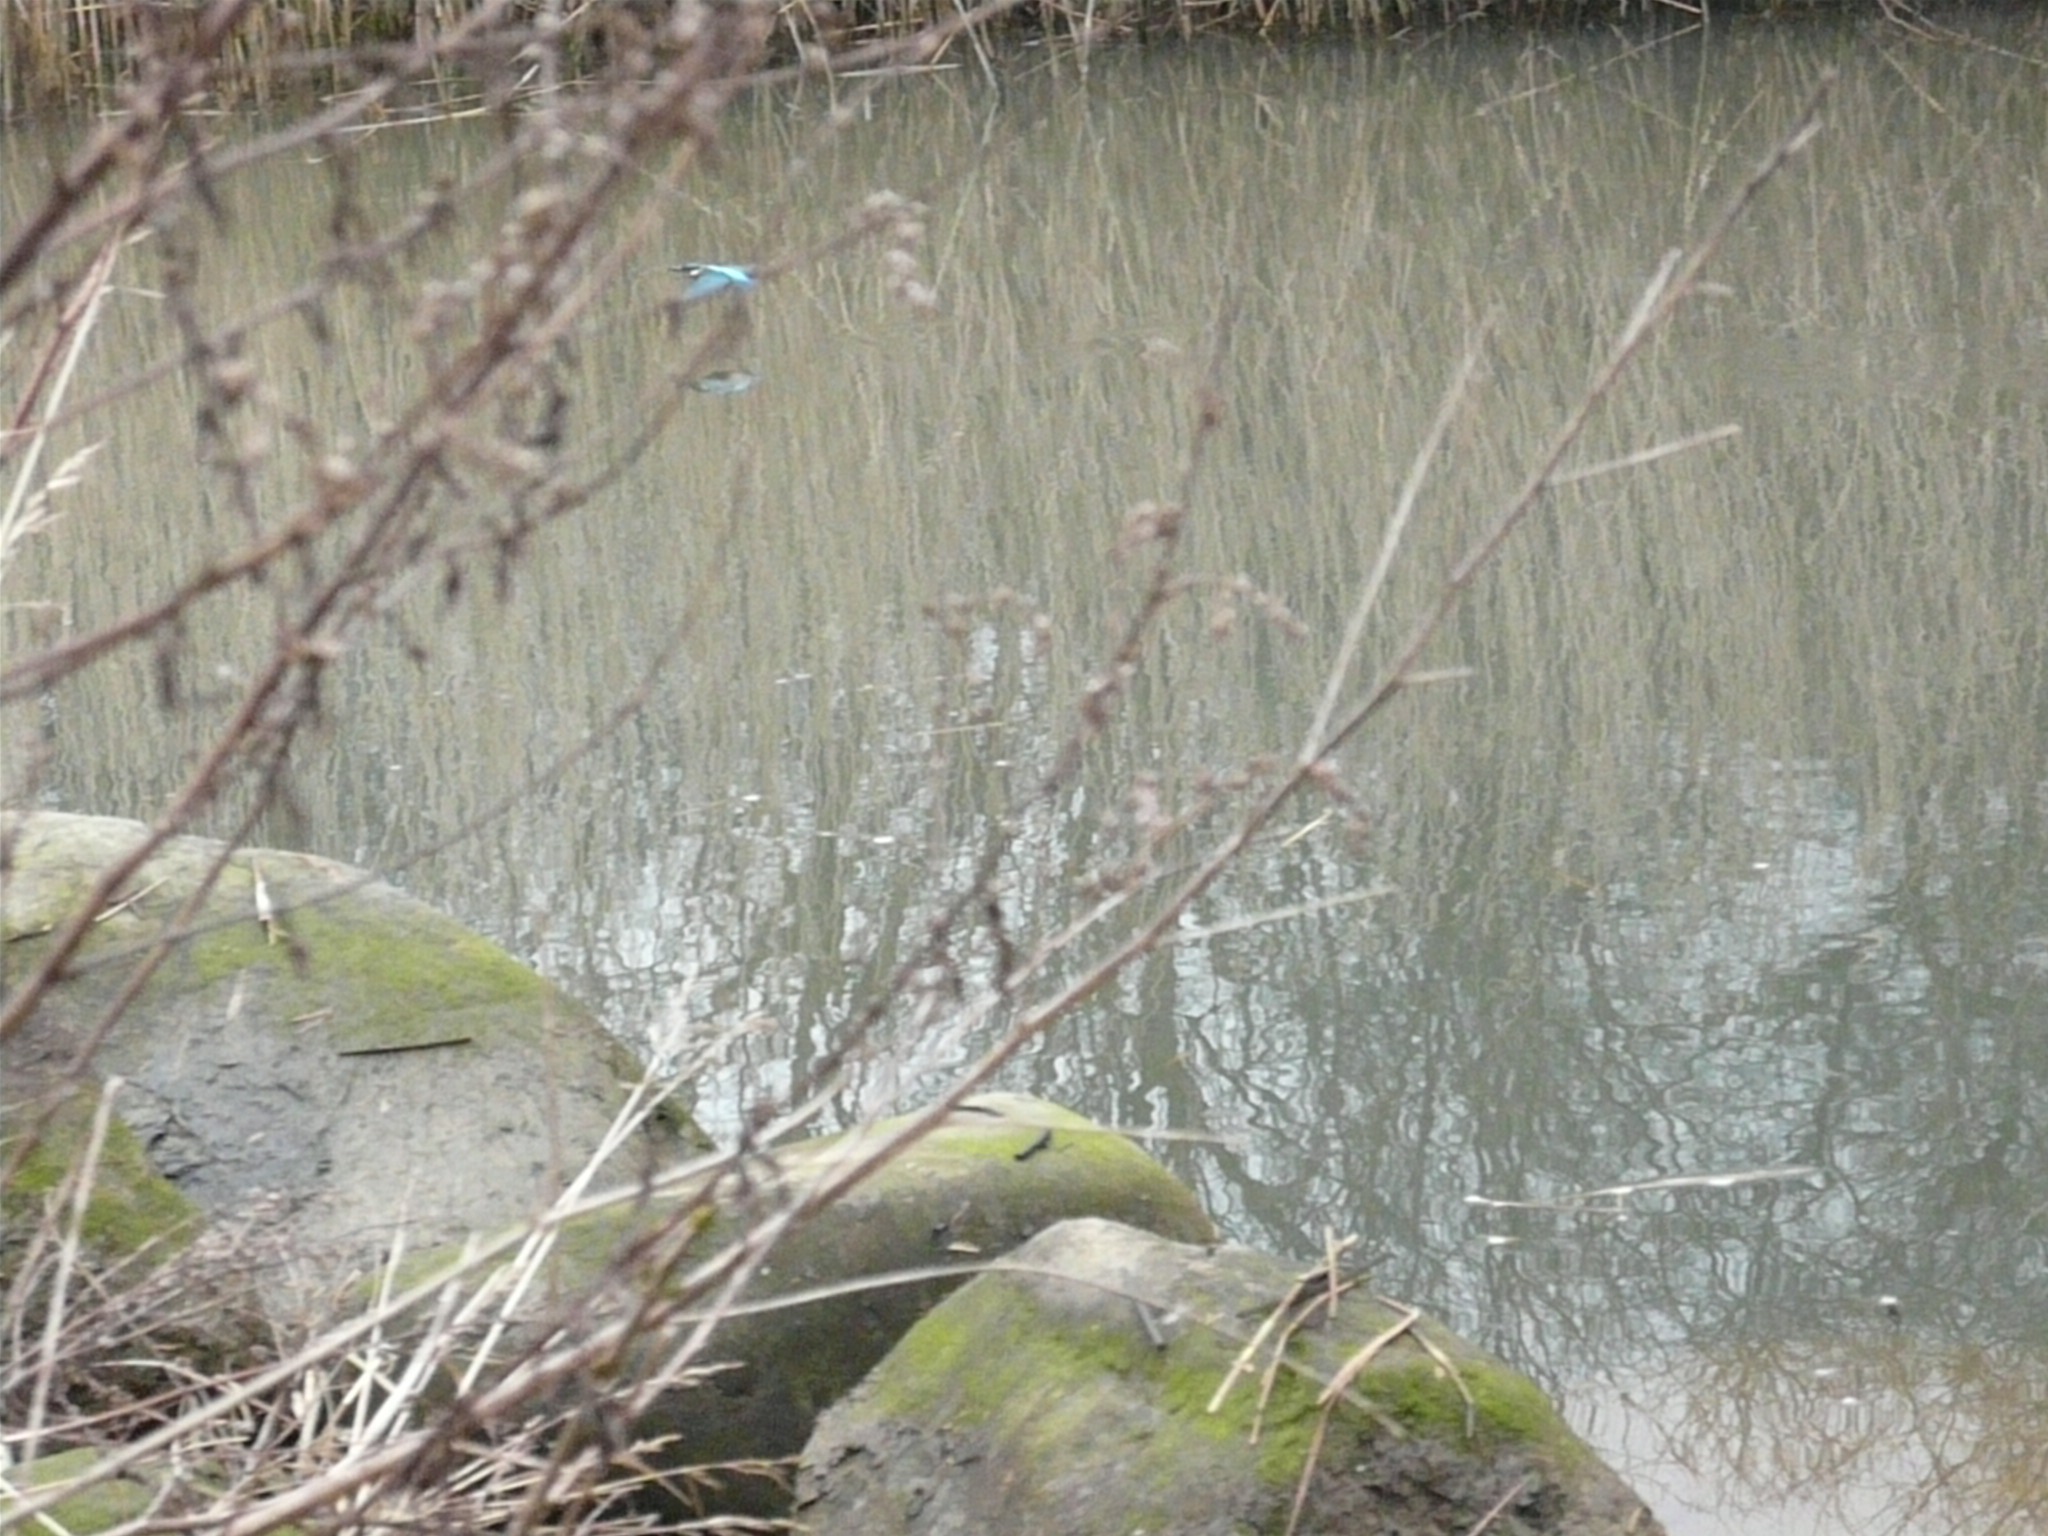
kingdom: Animalia
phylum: Chordata
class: Aves
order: Coraciiformes
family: Alcedinidae
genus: Alcedo
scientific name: Alcedo atthis
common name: Isfugl
